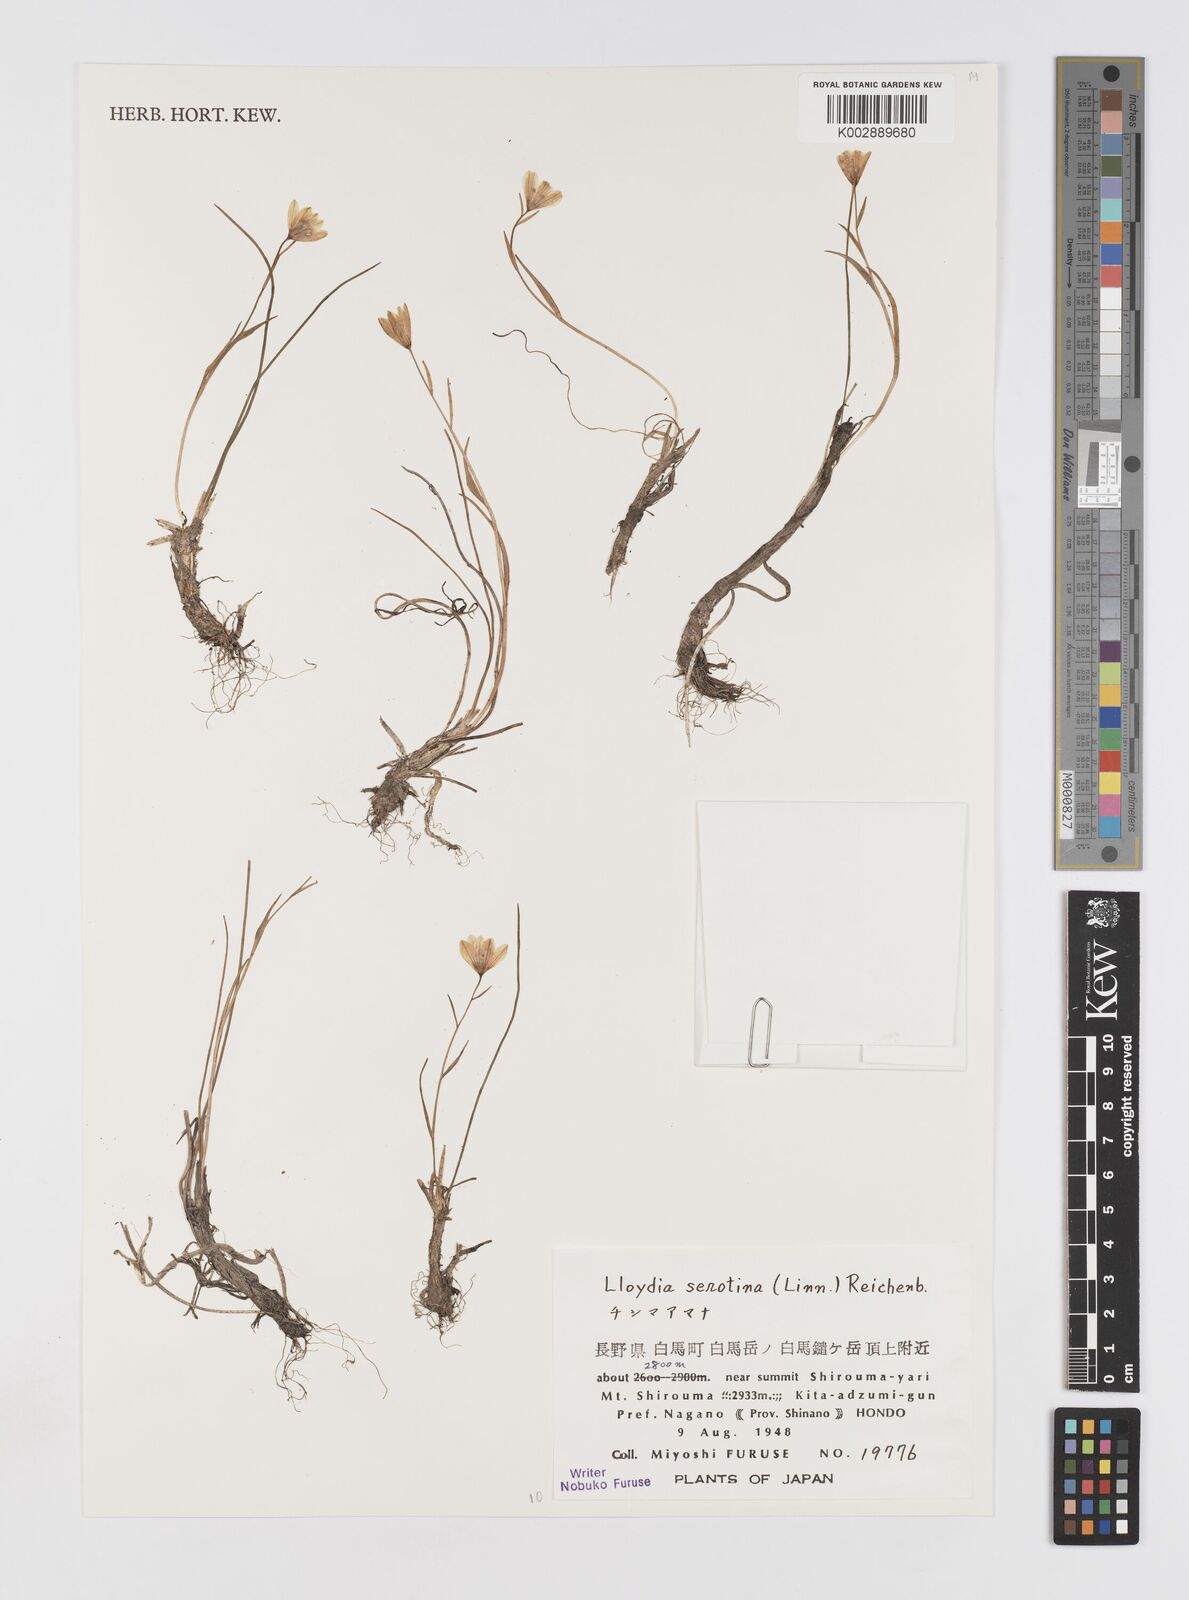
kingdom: Plantae
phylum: Tracheophyta
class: Liliopsida
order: Liliales
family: Liliaceae
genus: Gagea
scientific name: Gagea serotina
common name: Snowdon lily
